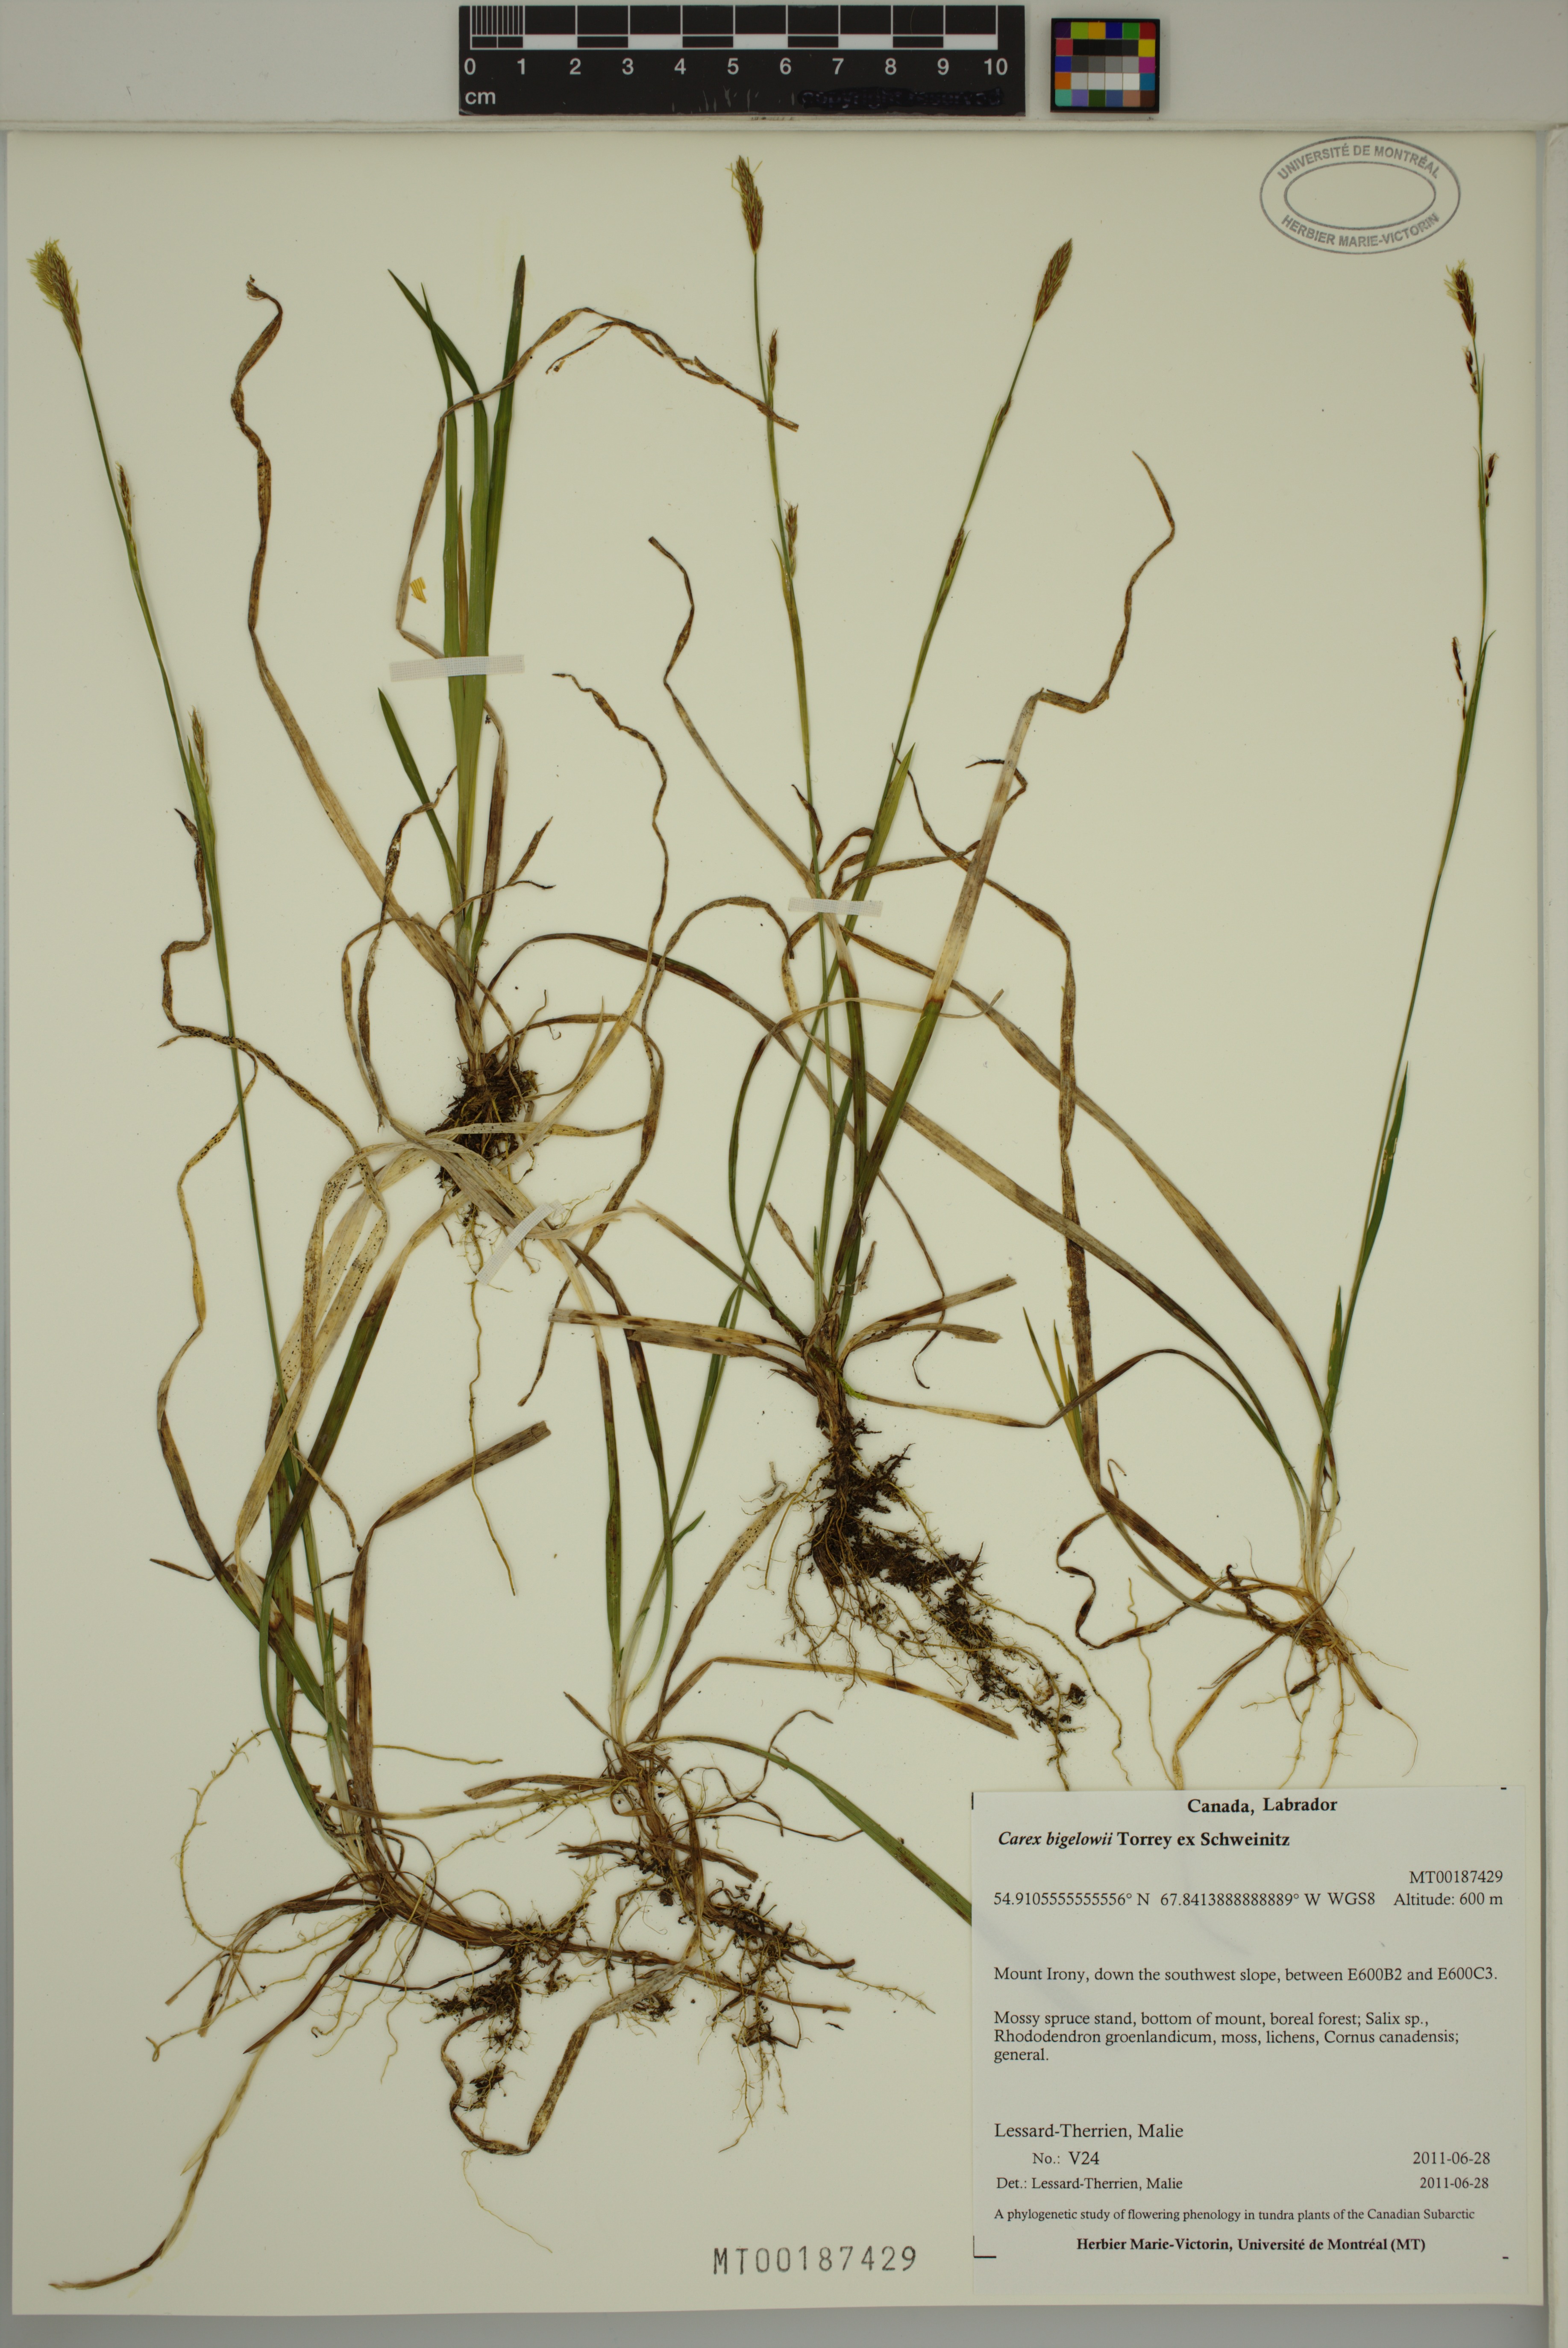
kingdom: Plantae
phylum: Tracheophyta
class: Liliopsida
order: Poales
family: Cyperaceae
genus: Carex
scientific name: Carex bigelowii
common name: Stiff sedge
